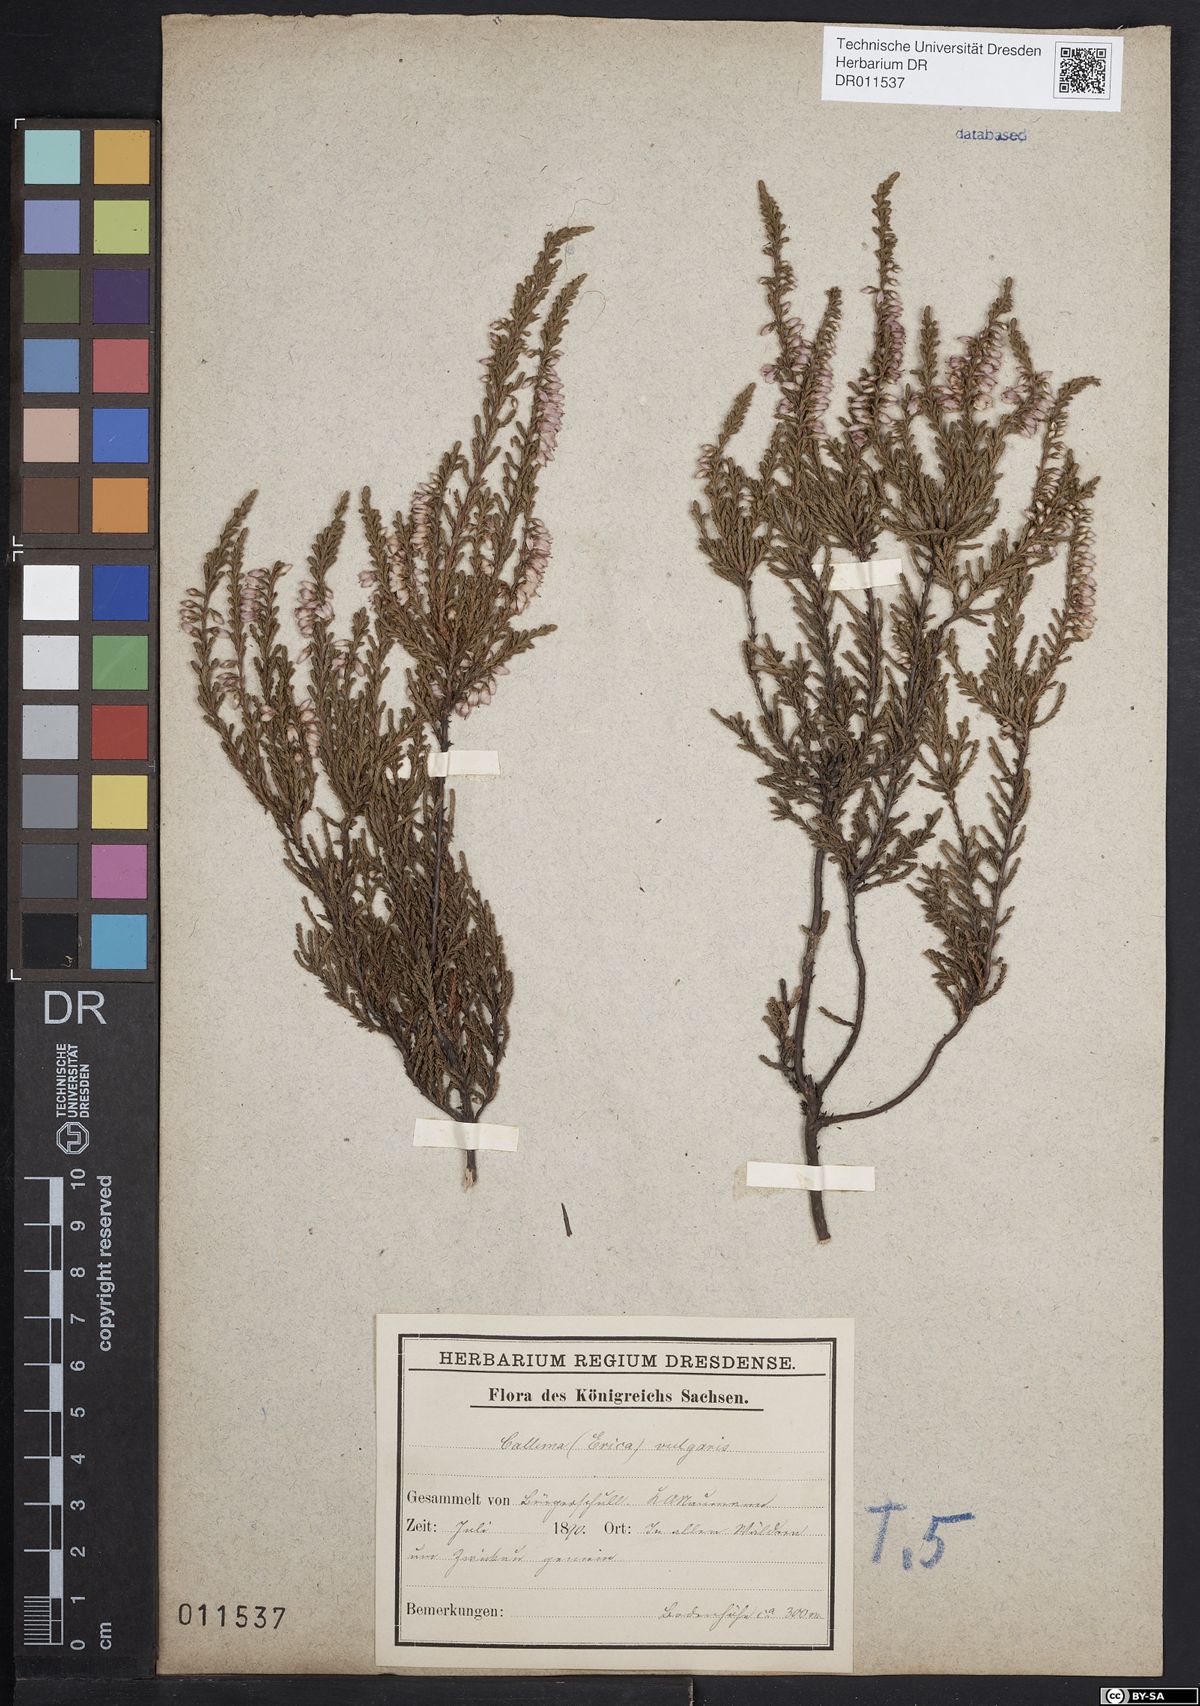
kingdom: Plantae
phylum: Tracheophyta
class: Magnoliopsida
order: Ericales
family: Ericaceae
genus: Calluna
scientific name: Calluna vulgaris
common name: Heather
